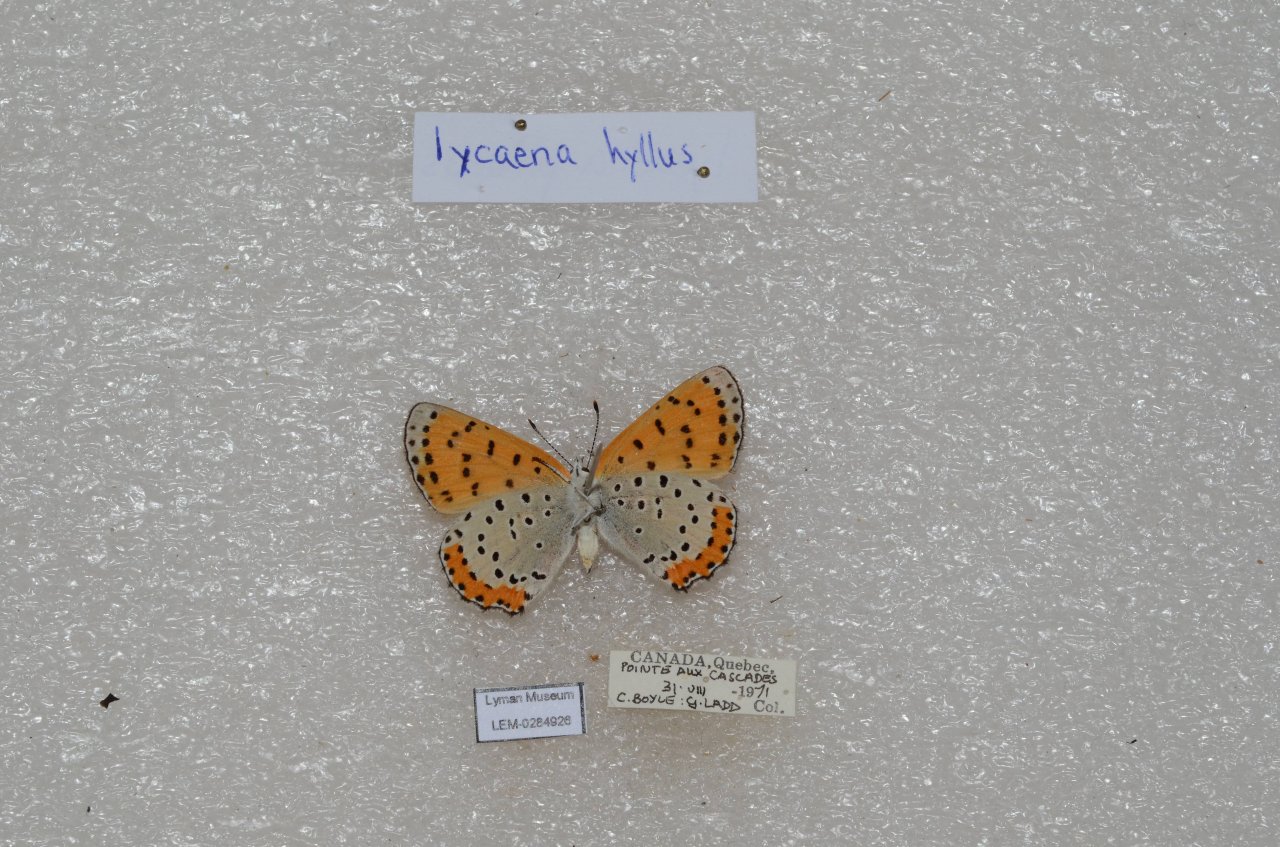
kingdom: Animalia
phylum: Arthropoda
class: Insecta
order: Lepidoptera
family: Sesiidae
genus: Sesia
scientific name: Sesia Lycaena hyllus
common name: Bronze Copper
